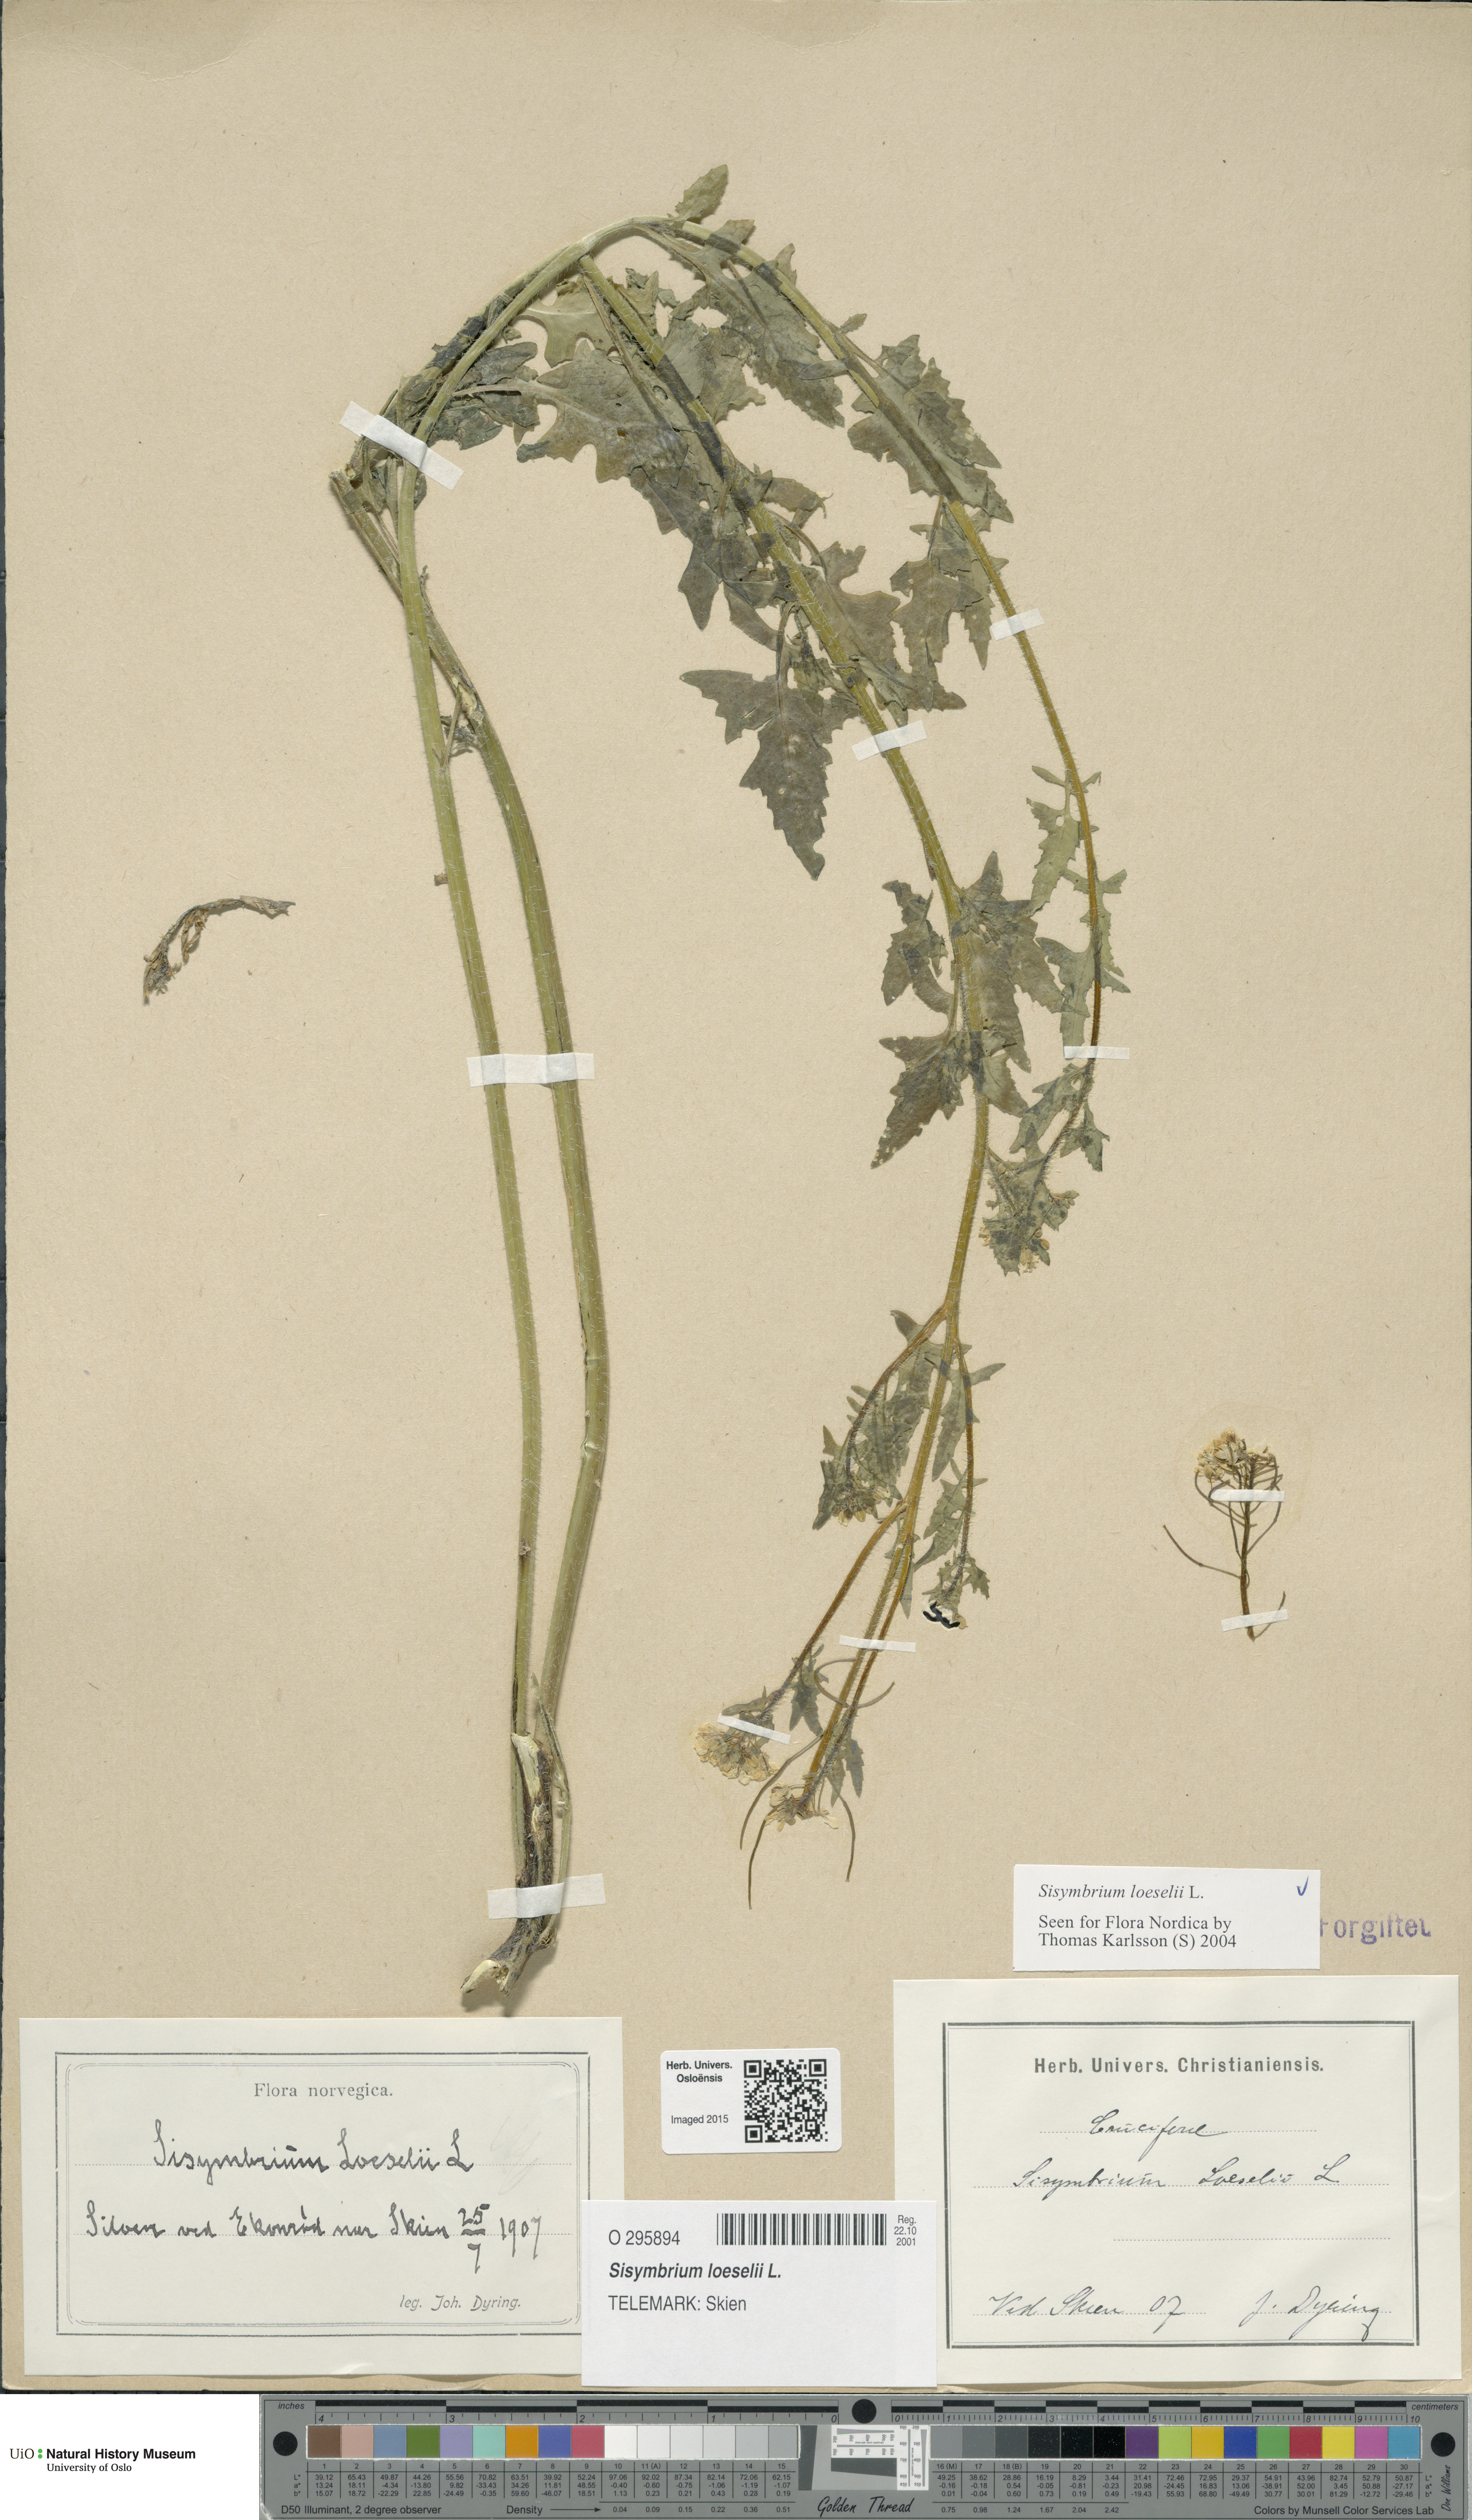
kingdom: Plantae
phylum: Tracheophyta
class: Magnoliopsida
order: Brassicales
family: Brassicaceae
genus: Sisymbrium
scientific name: Sisymbrium loeselii
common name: False london-rocket
